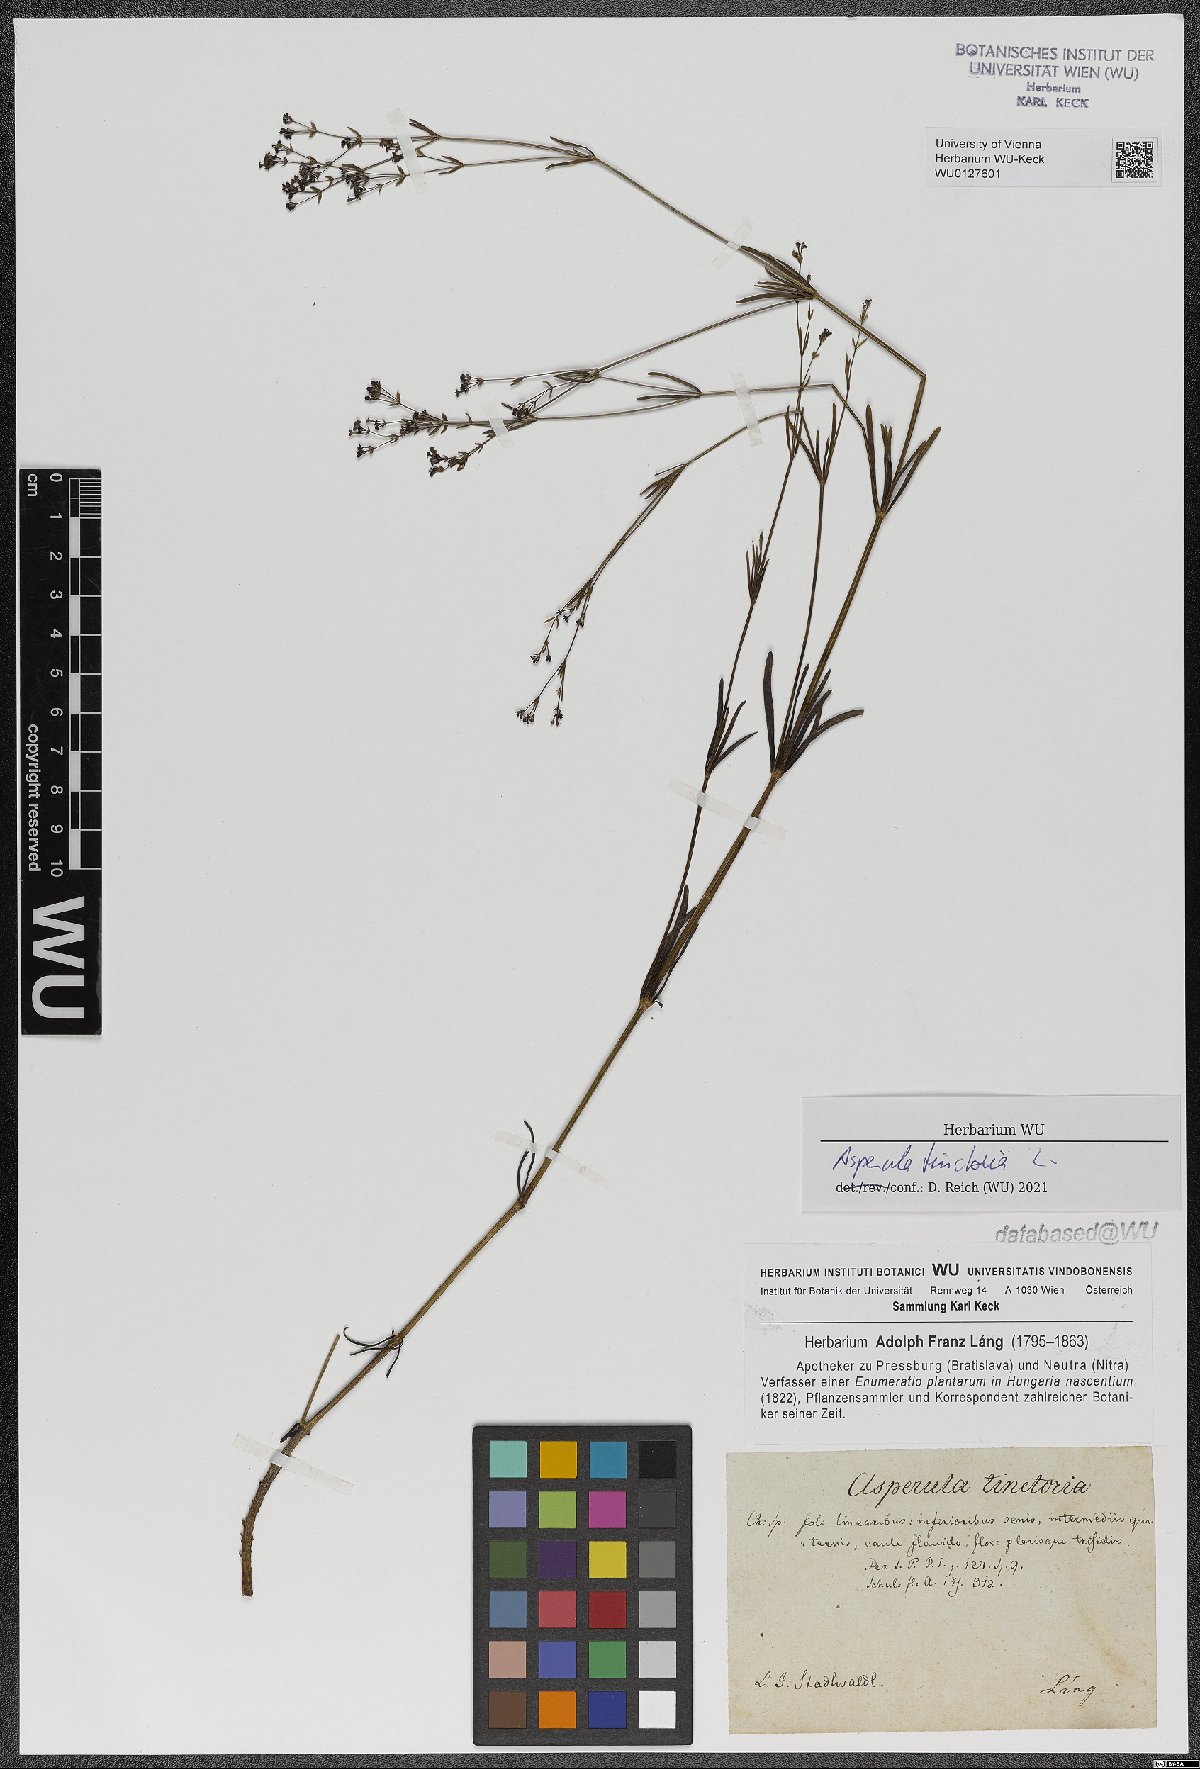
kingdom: Plantae
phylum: Tracheophyta
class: Magnoliopsida
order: Gentianales
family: Rubiaceae
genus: Asperula
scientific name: Asperula tinctoria
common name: Dyer's woodruff
